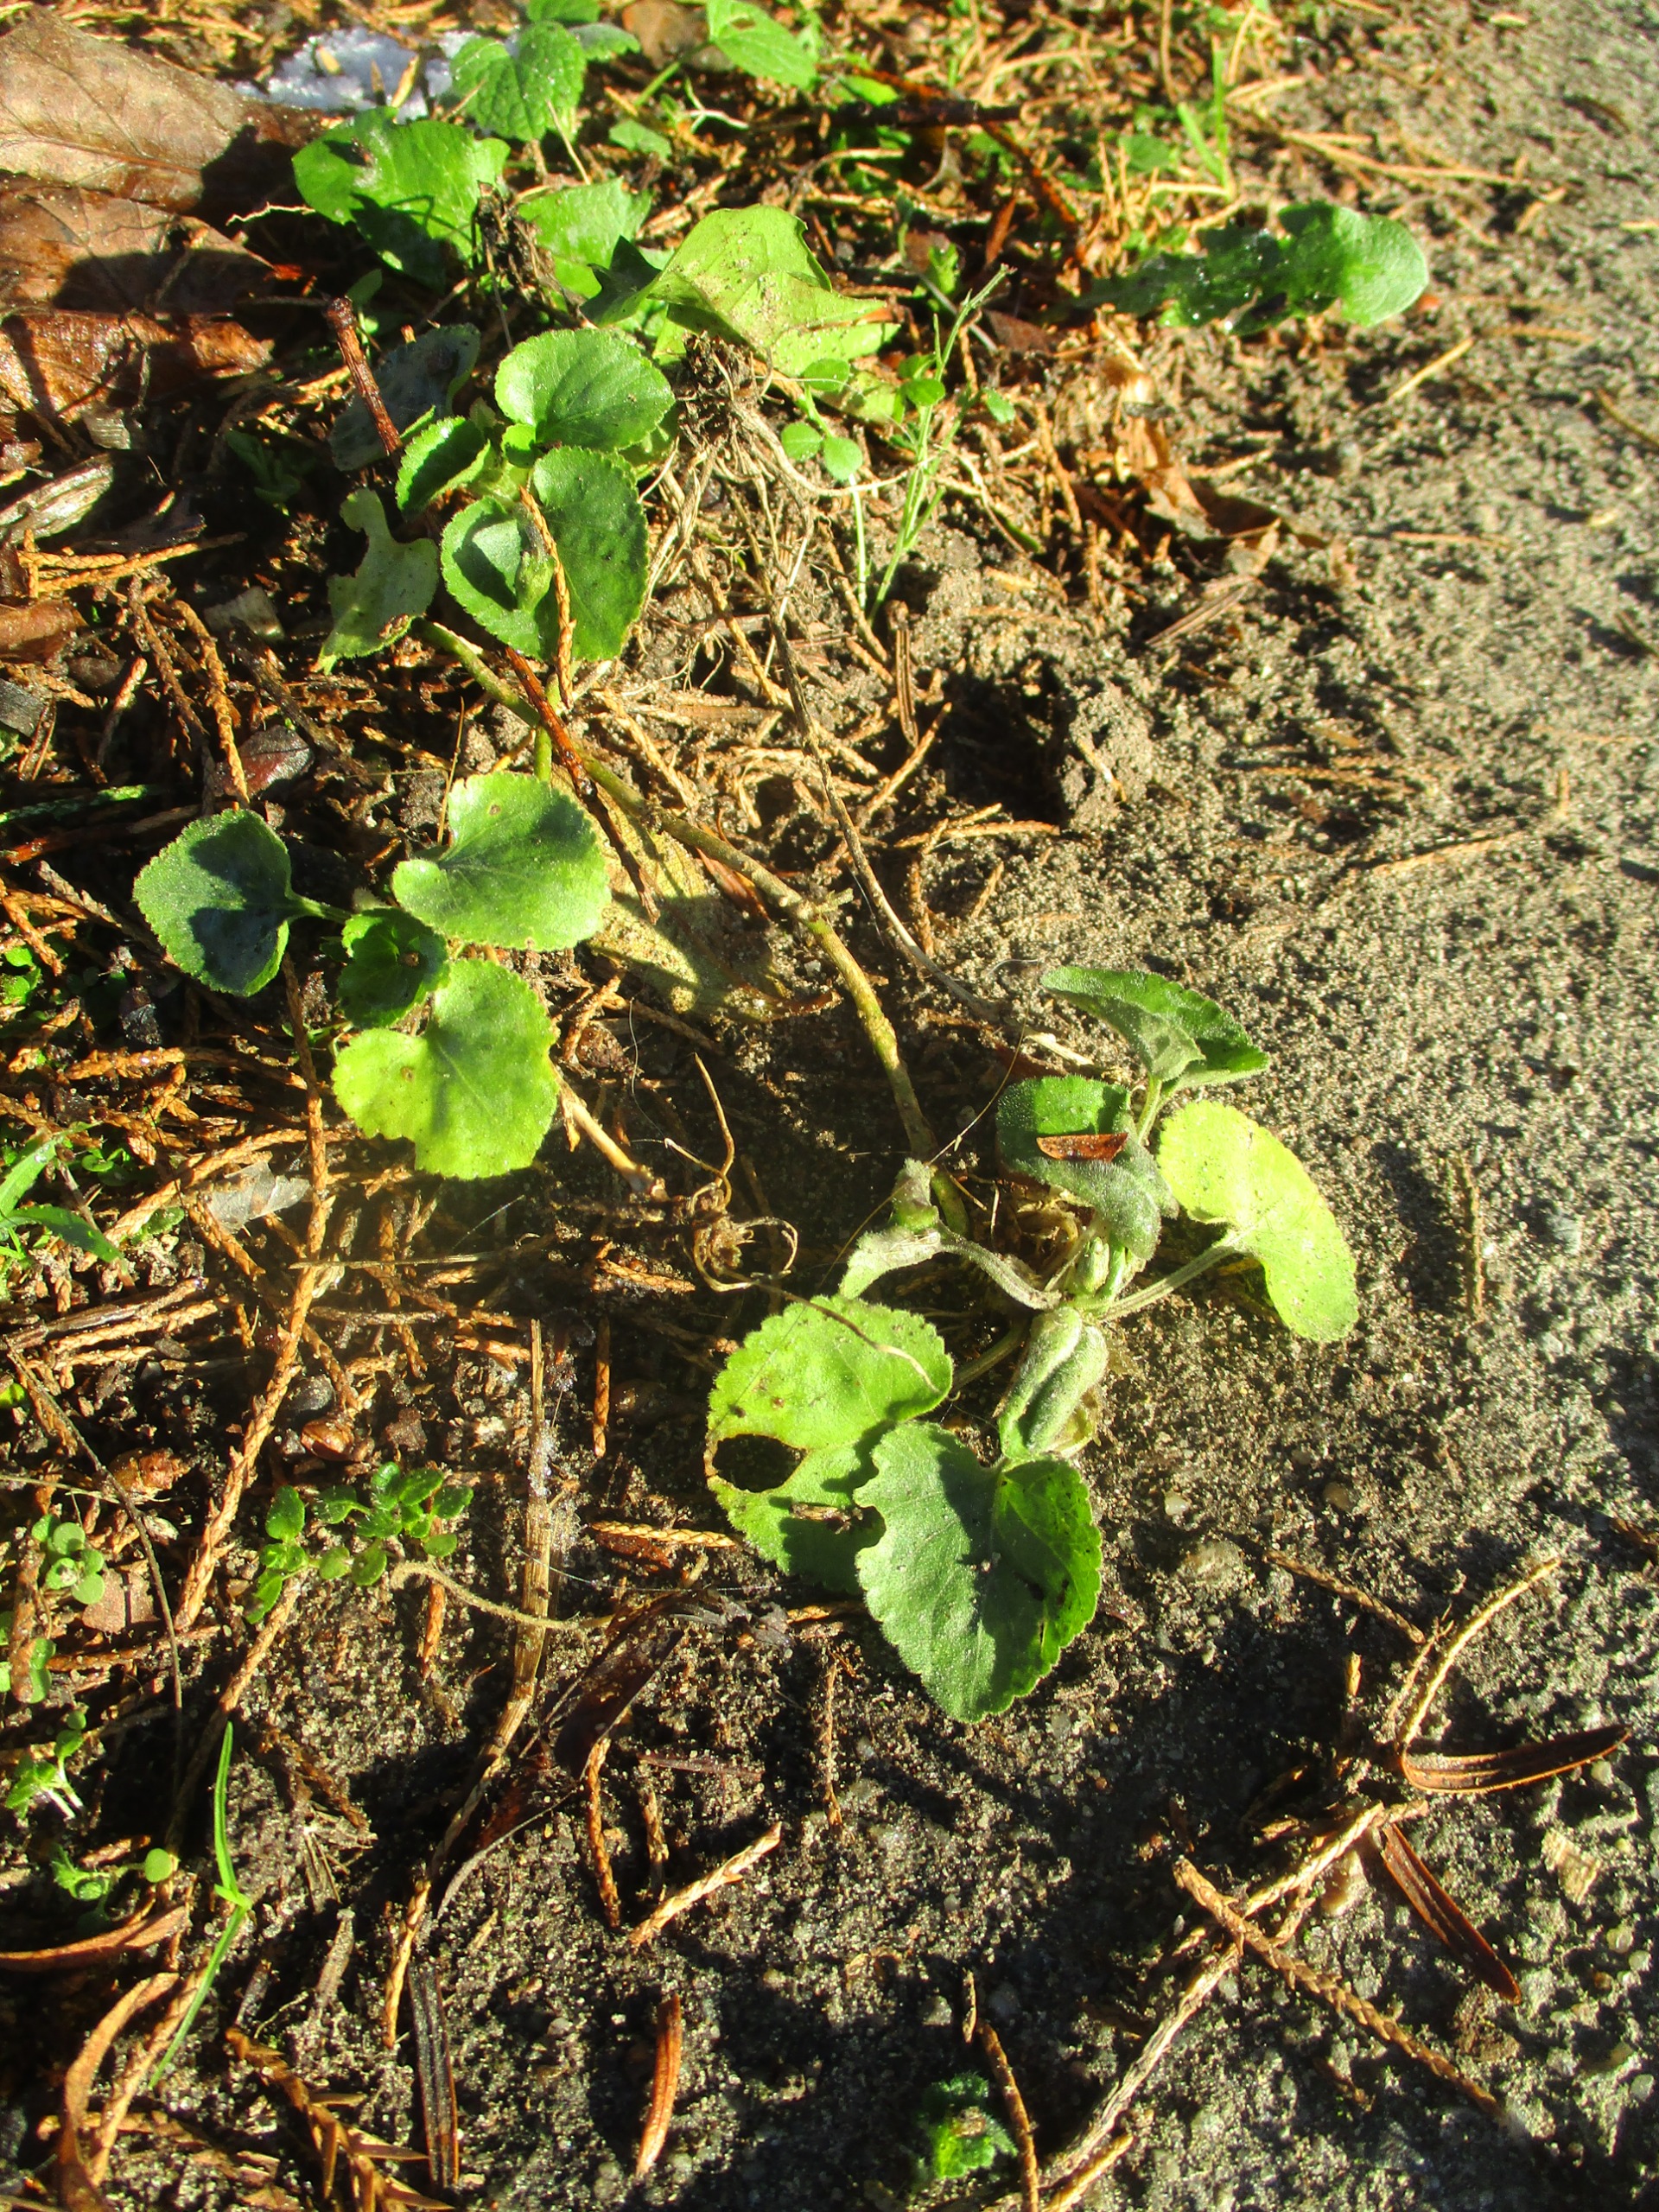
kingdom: Plantae
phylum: Tracheophyta
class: Magnoliopsida
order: Malpighiales
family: Violaceae
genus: Viola
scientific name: Viola odorata
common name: Marts-viol
